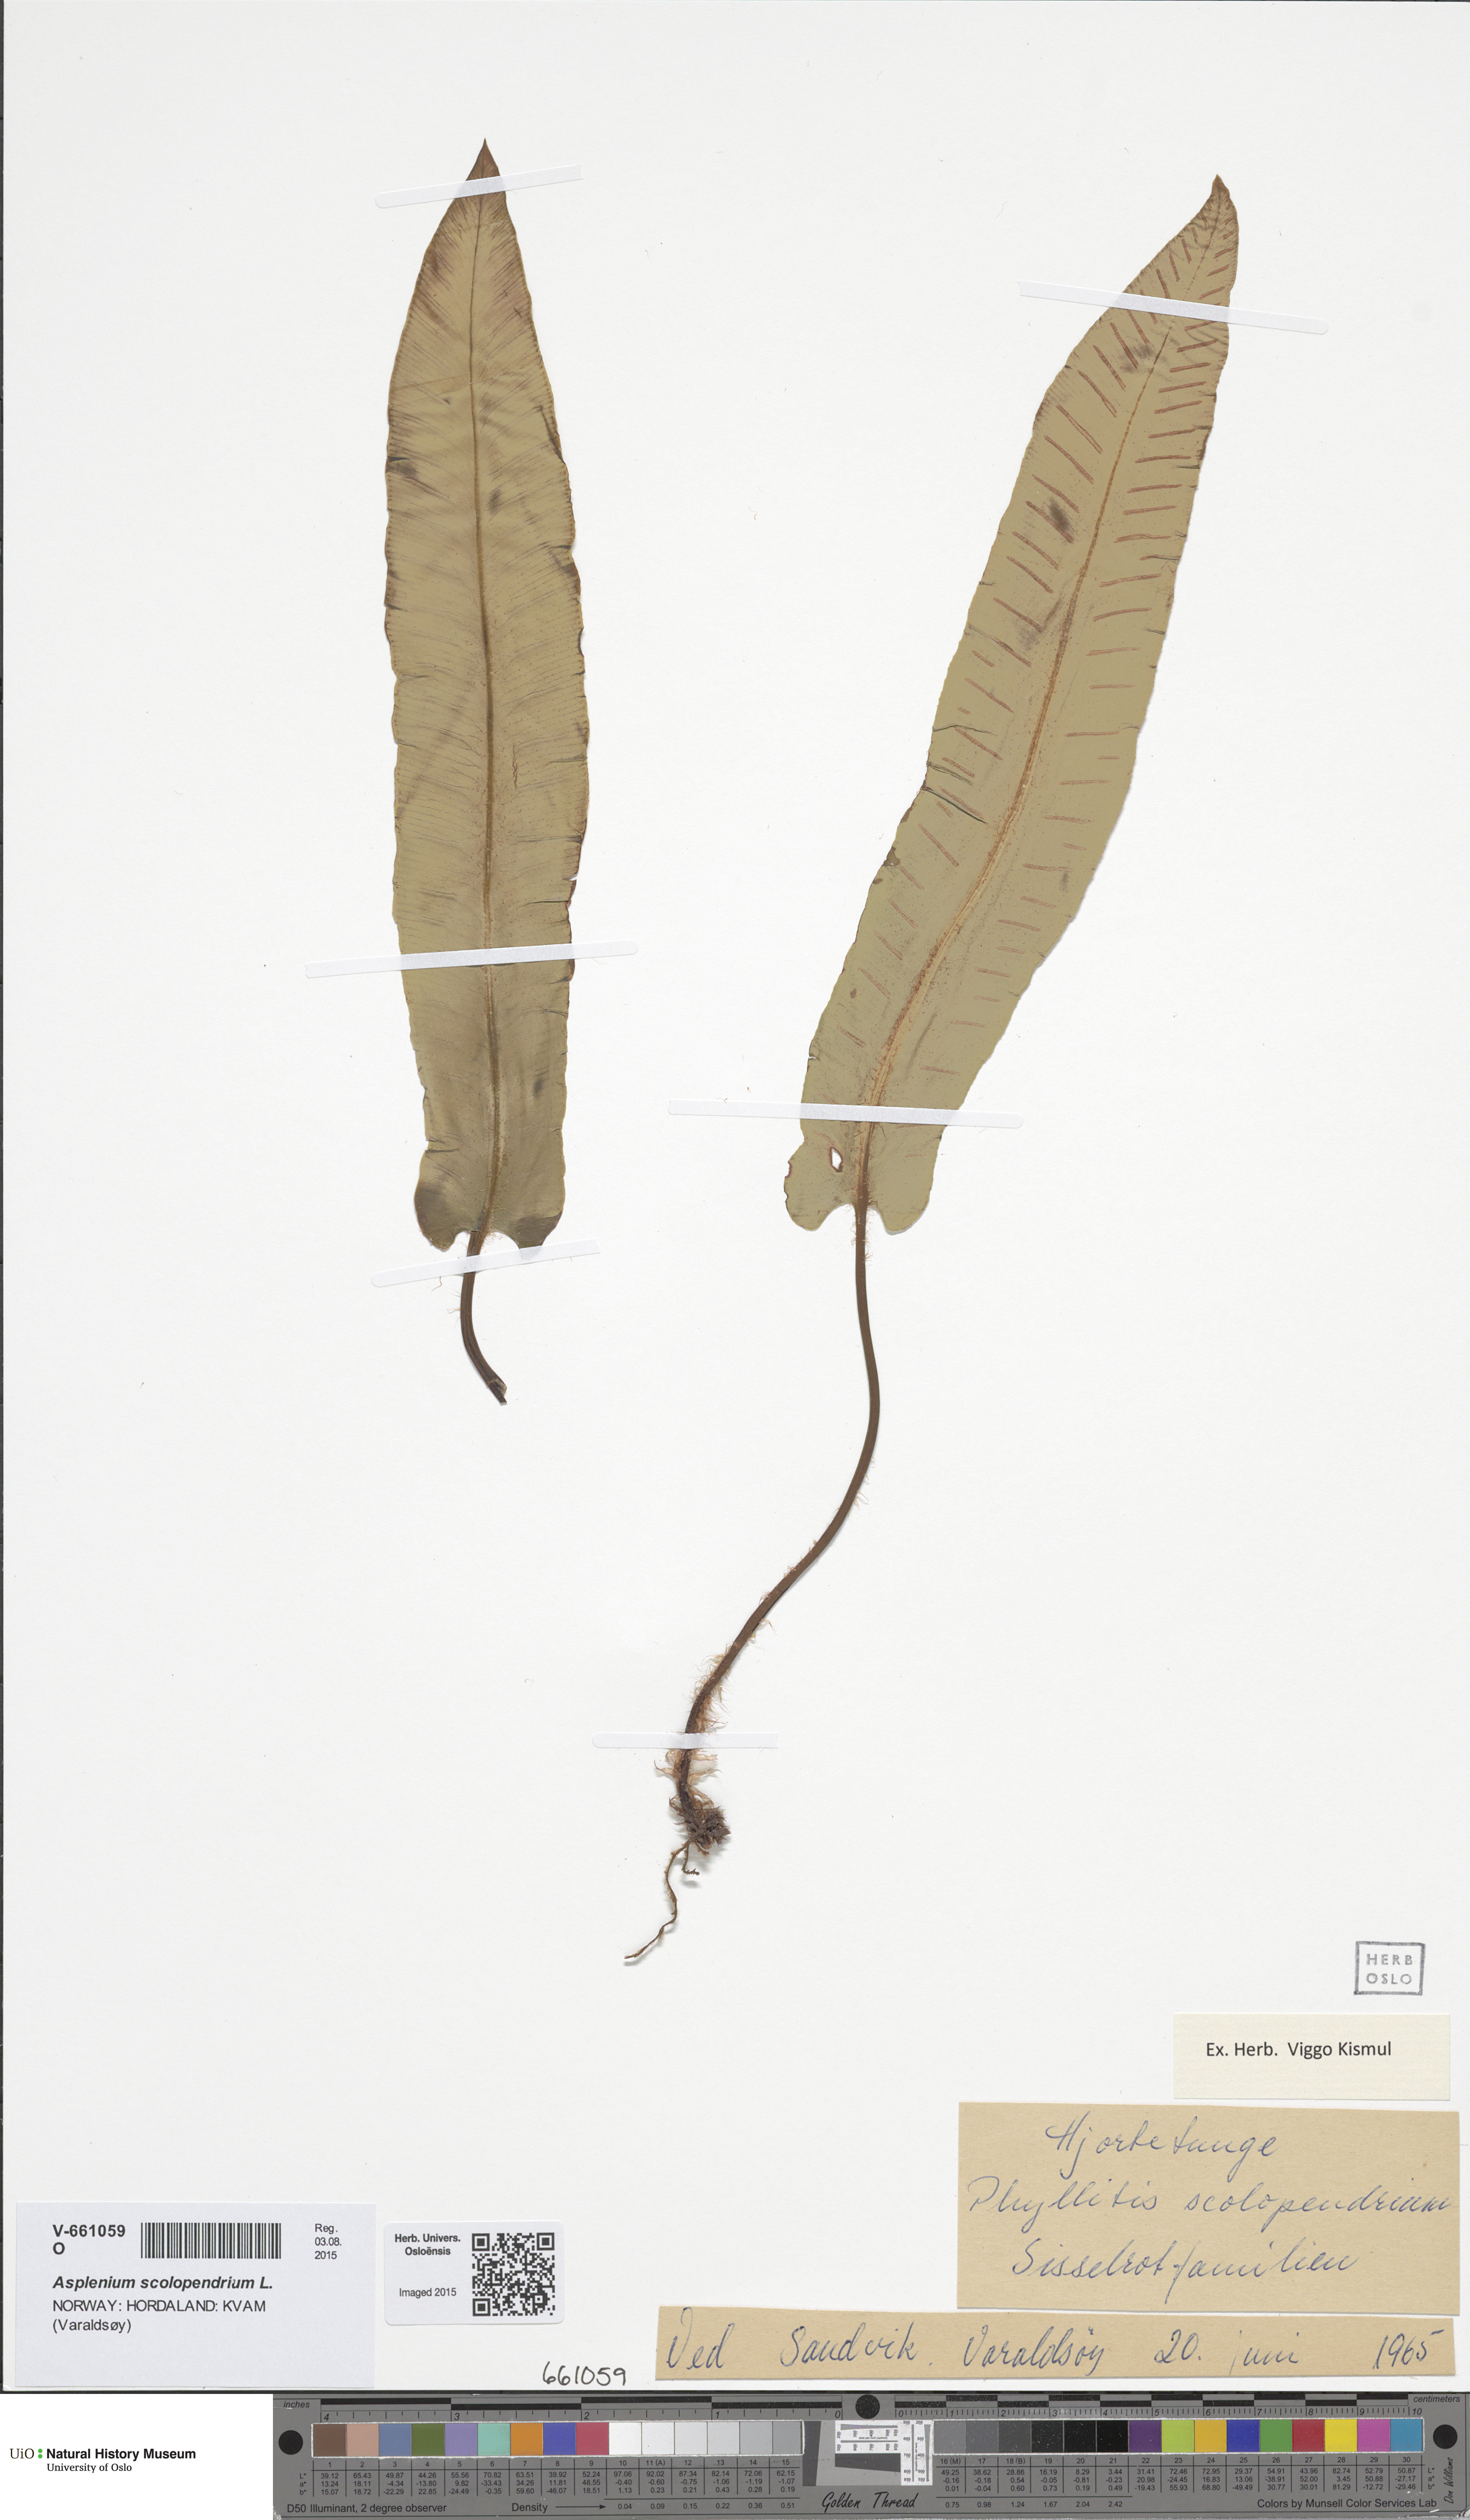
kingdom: Plantae
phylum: Tracheophyta
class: Polypodiopsida
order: Polypodiales
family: Aspleniaceae
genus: Asplenium
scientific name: Asplenium scolopendrium
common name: Hart's-tongue fern
